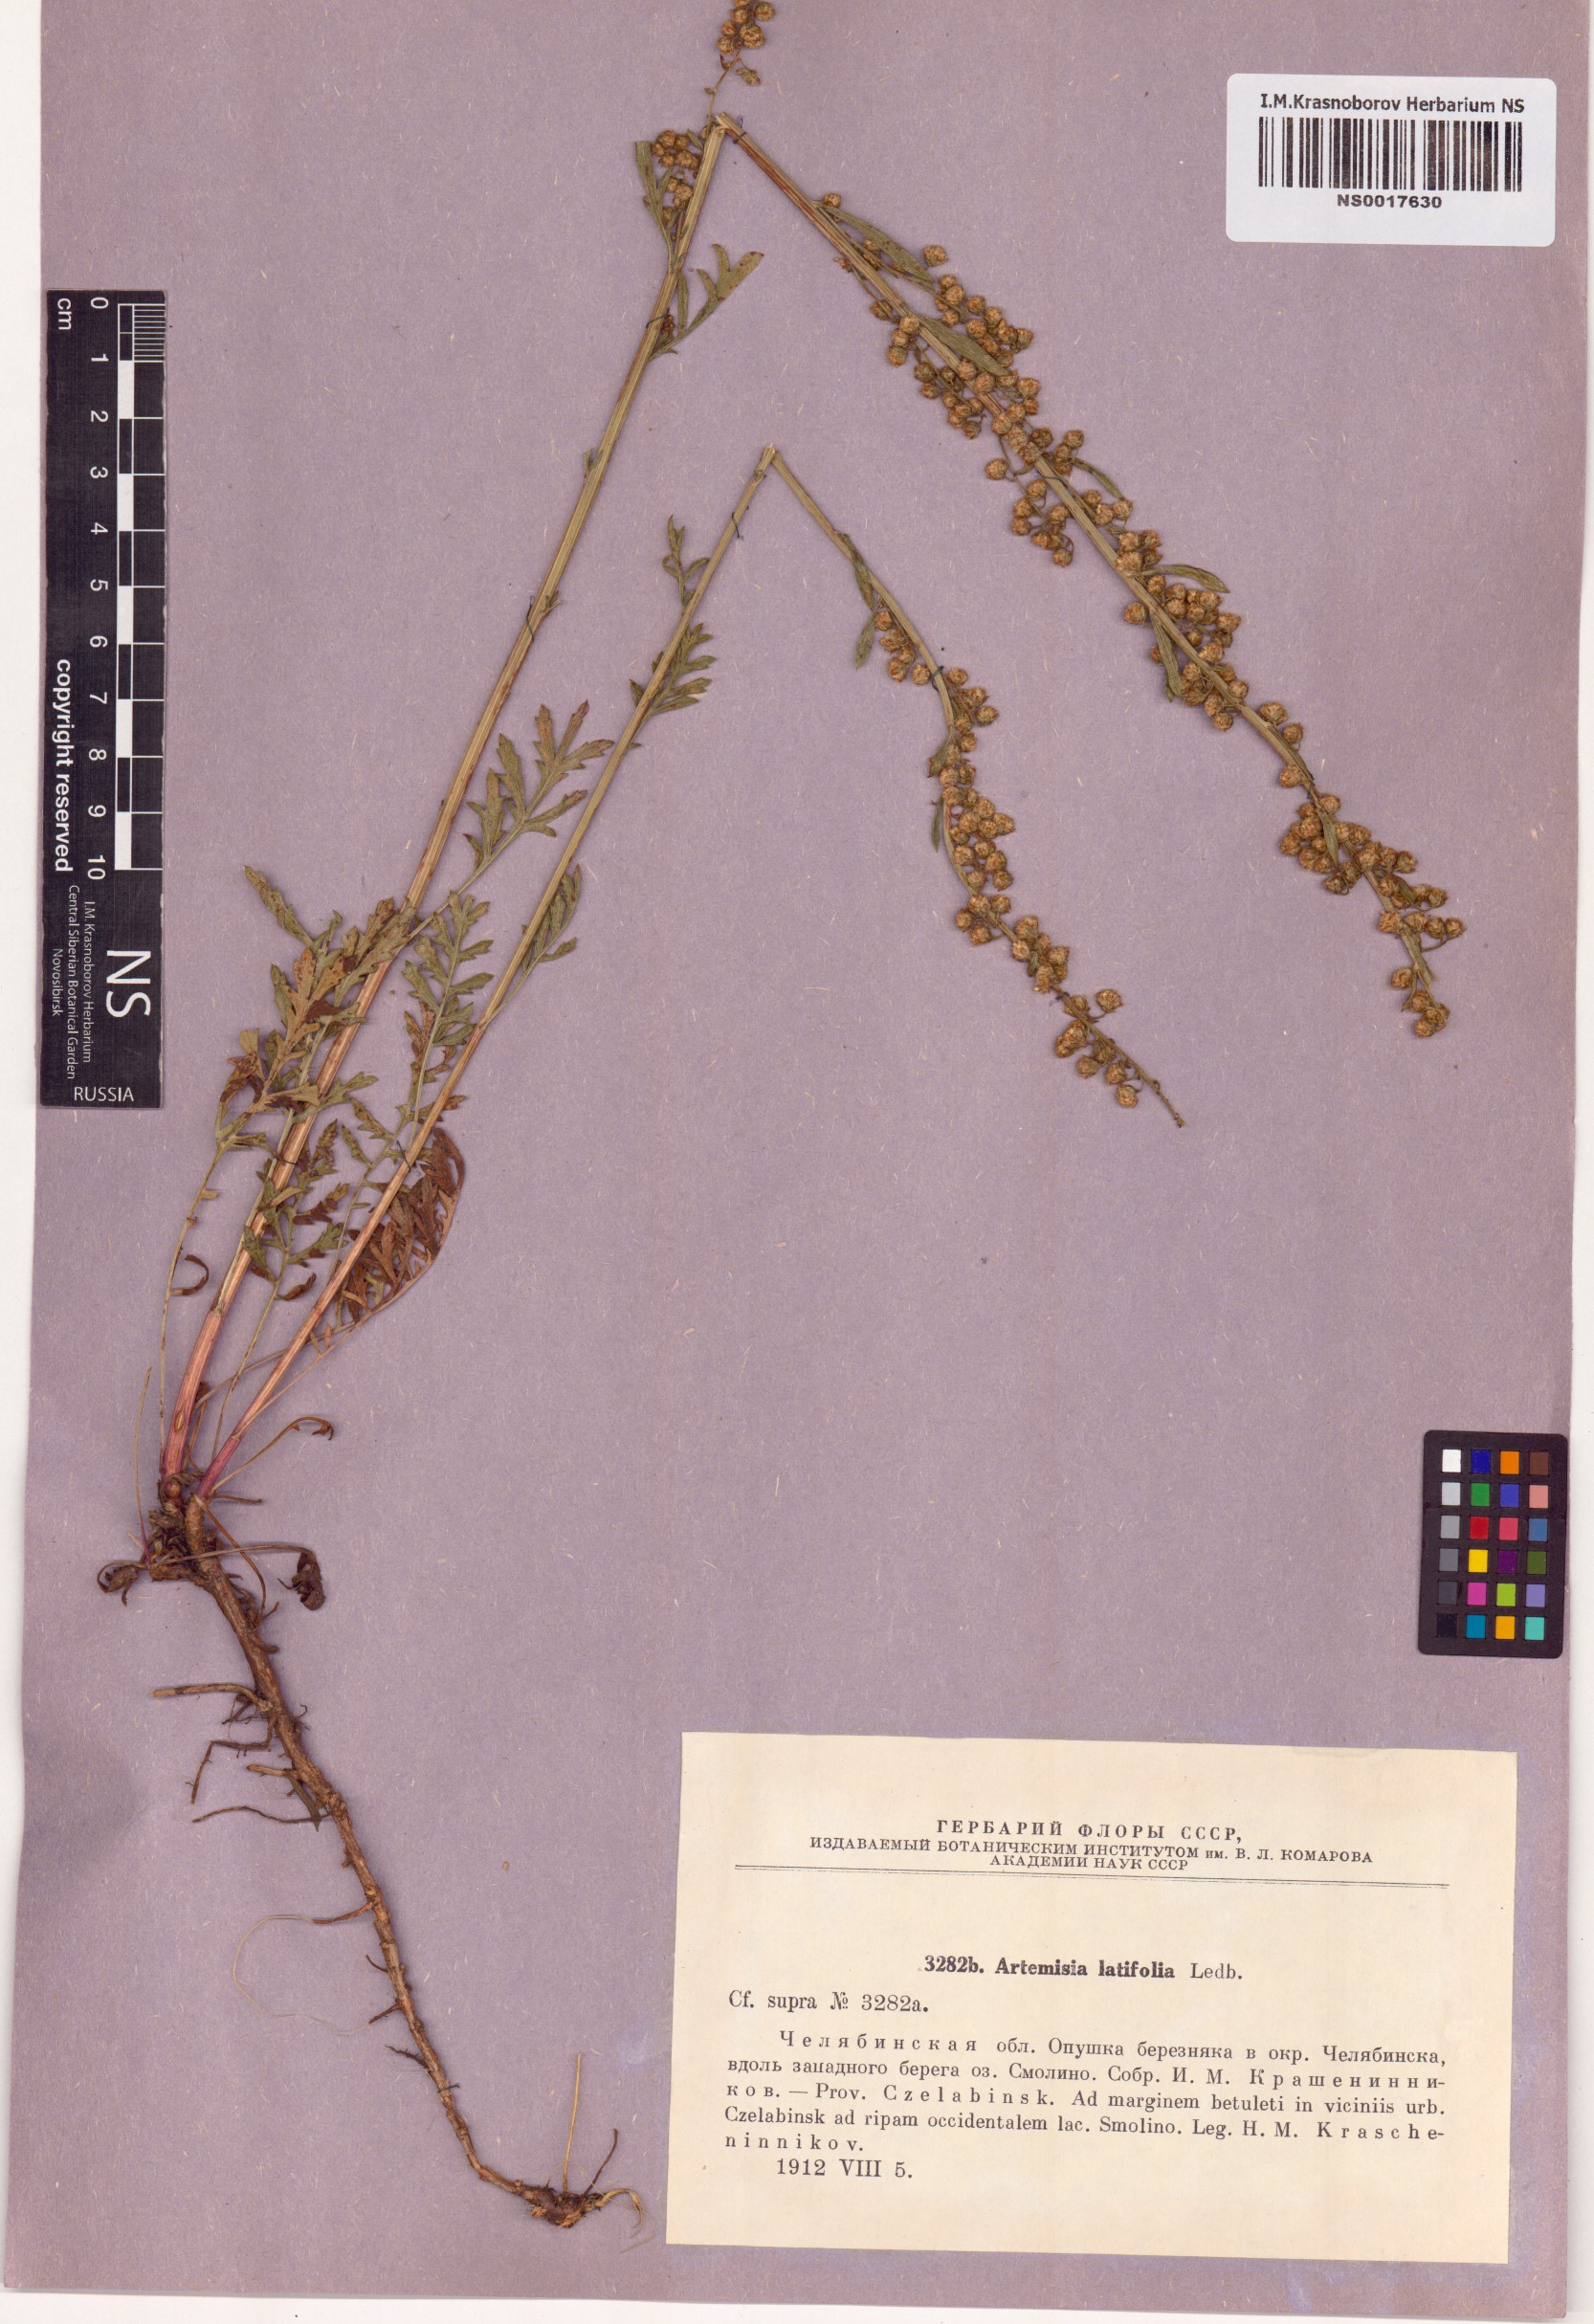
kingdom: Plantae
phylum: Tracheophyta
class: Magnoliopsida
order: Asterales
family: Asteraceae
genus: Artemisia
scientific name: Artemisia latifolia
